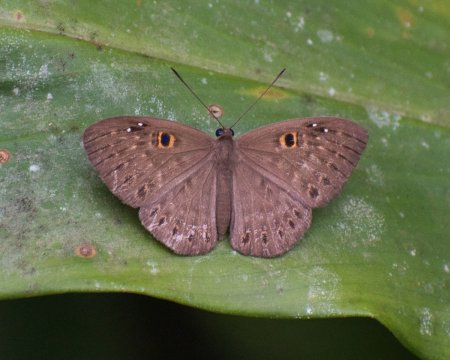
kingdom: Animalia
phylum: Cnidaria
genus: Eurybia
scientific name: Eurybia dardus
